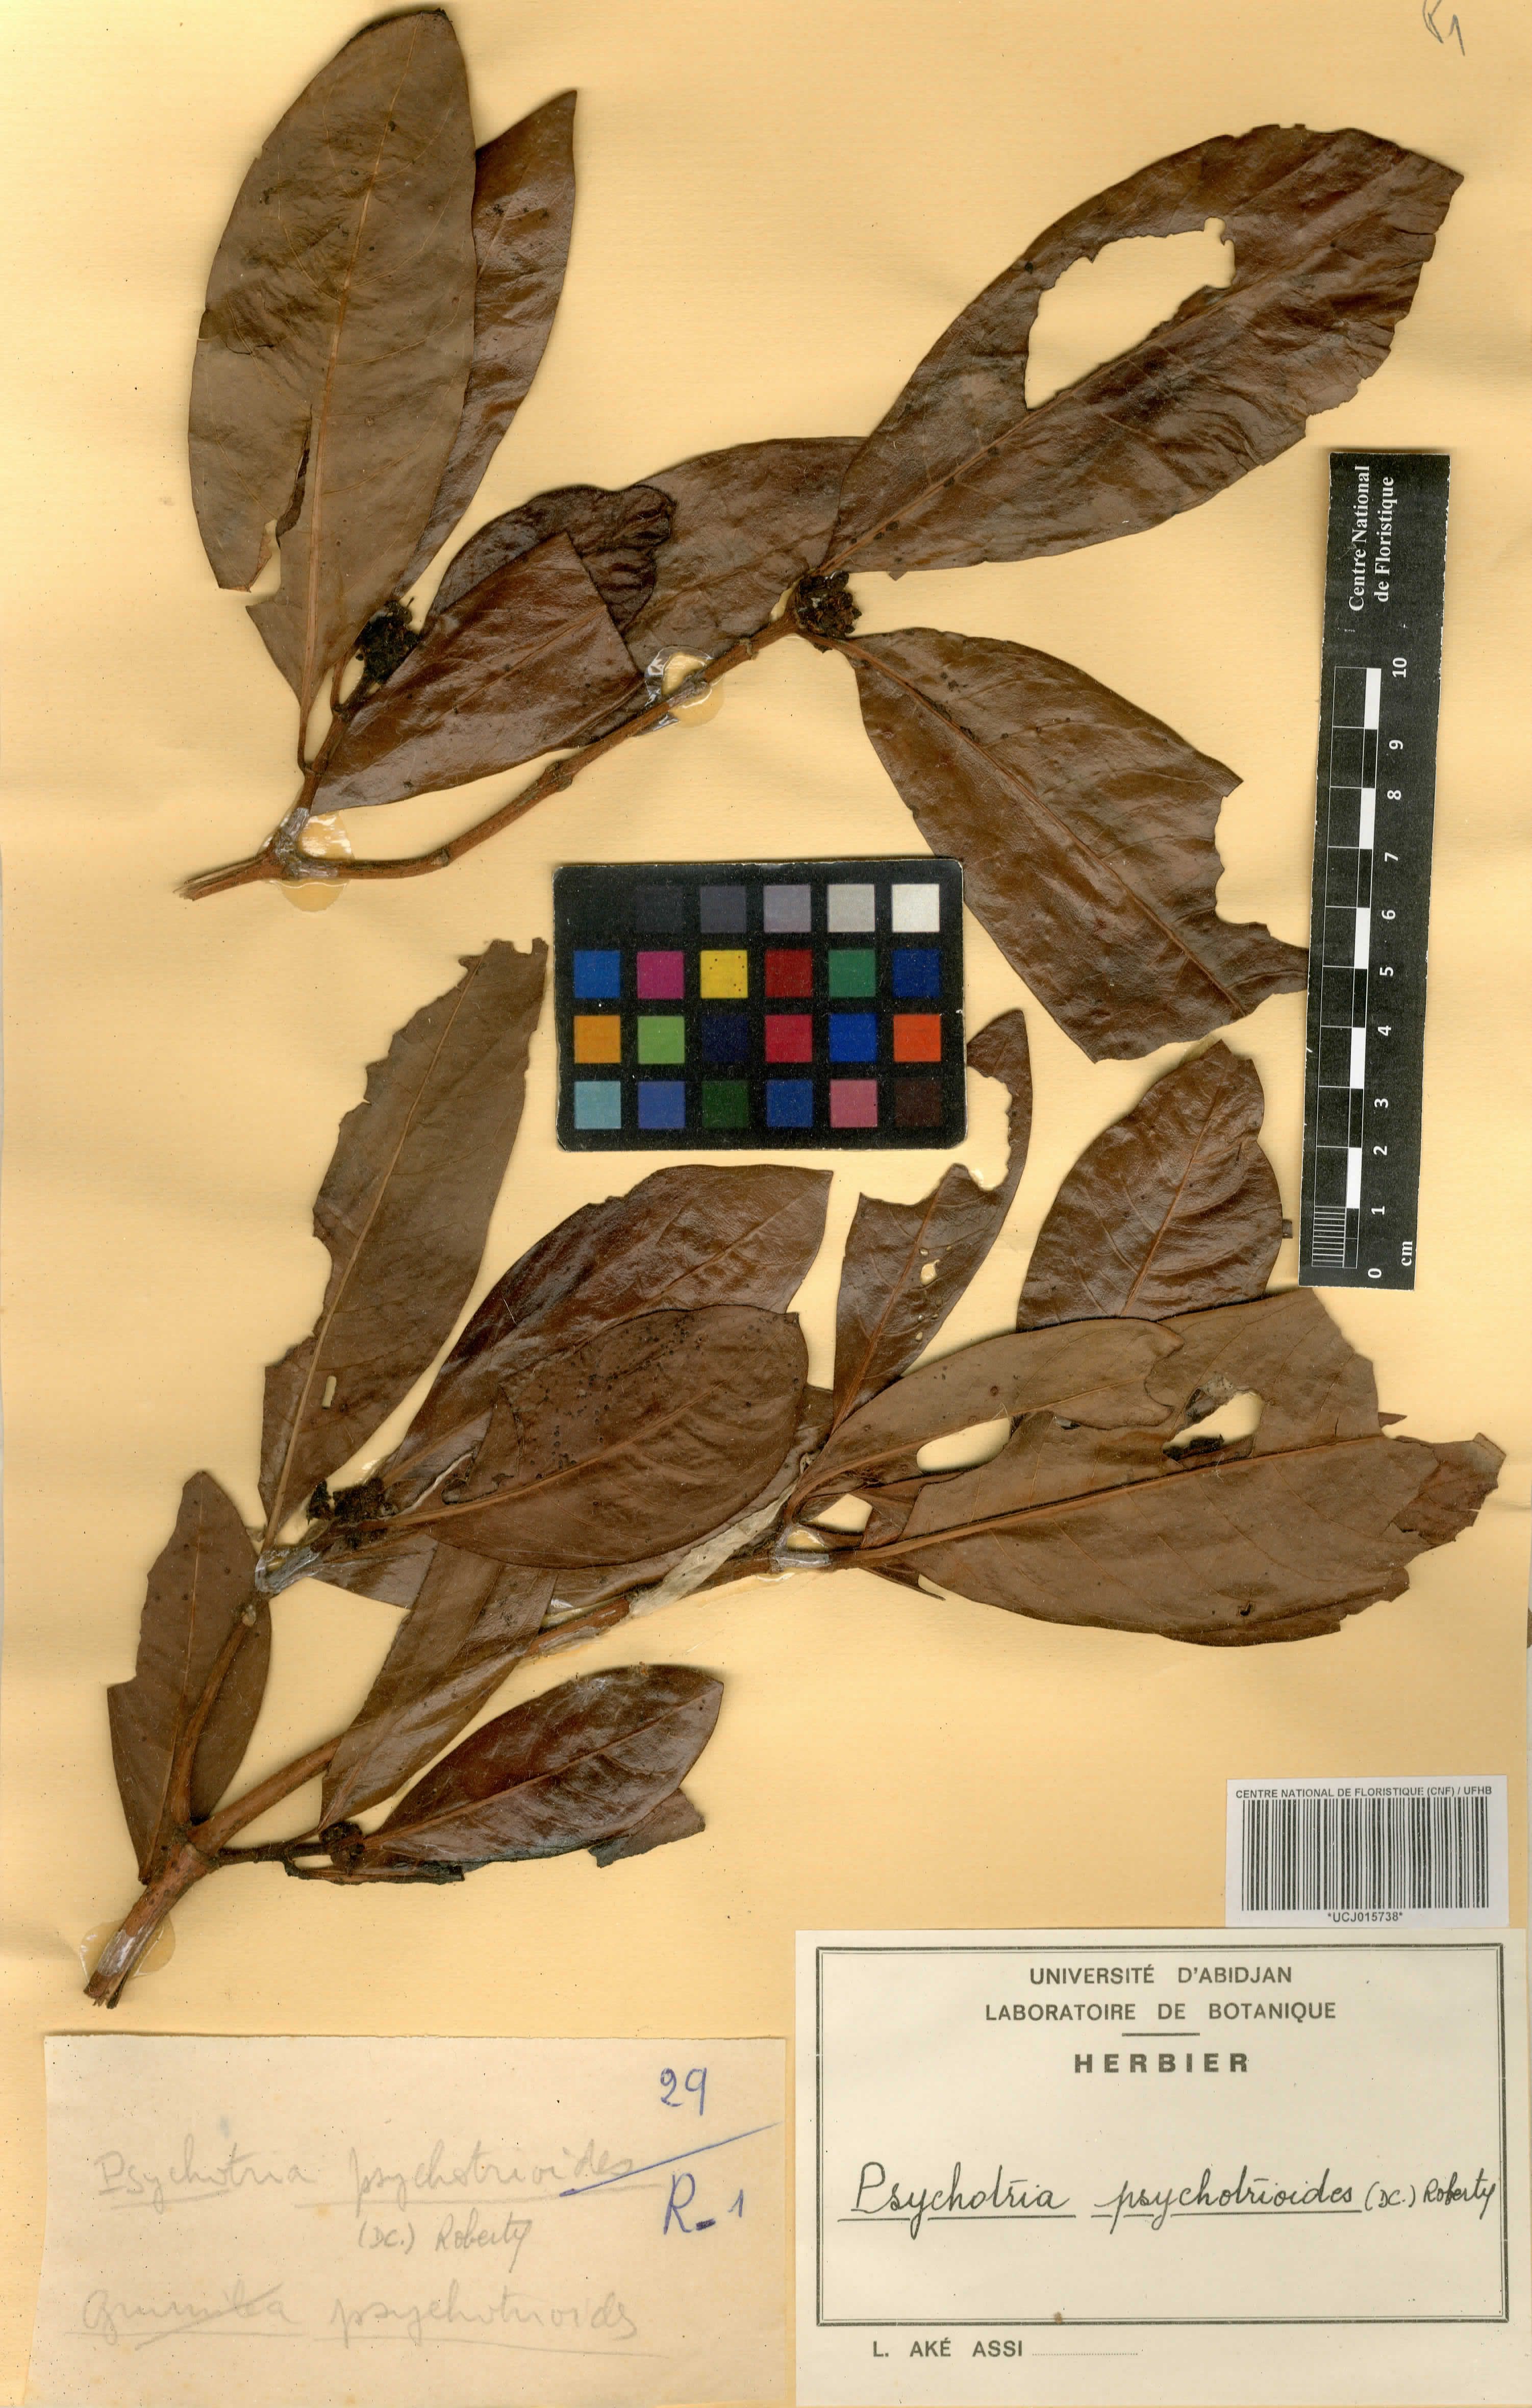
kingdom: Plantae
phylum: Tracheophyta
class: Magnoliopsida
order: Gentianales
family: Rubiaceae
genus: Psychotria
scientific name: Psychotria psychotrioides
